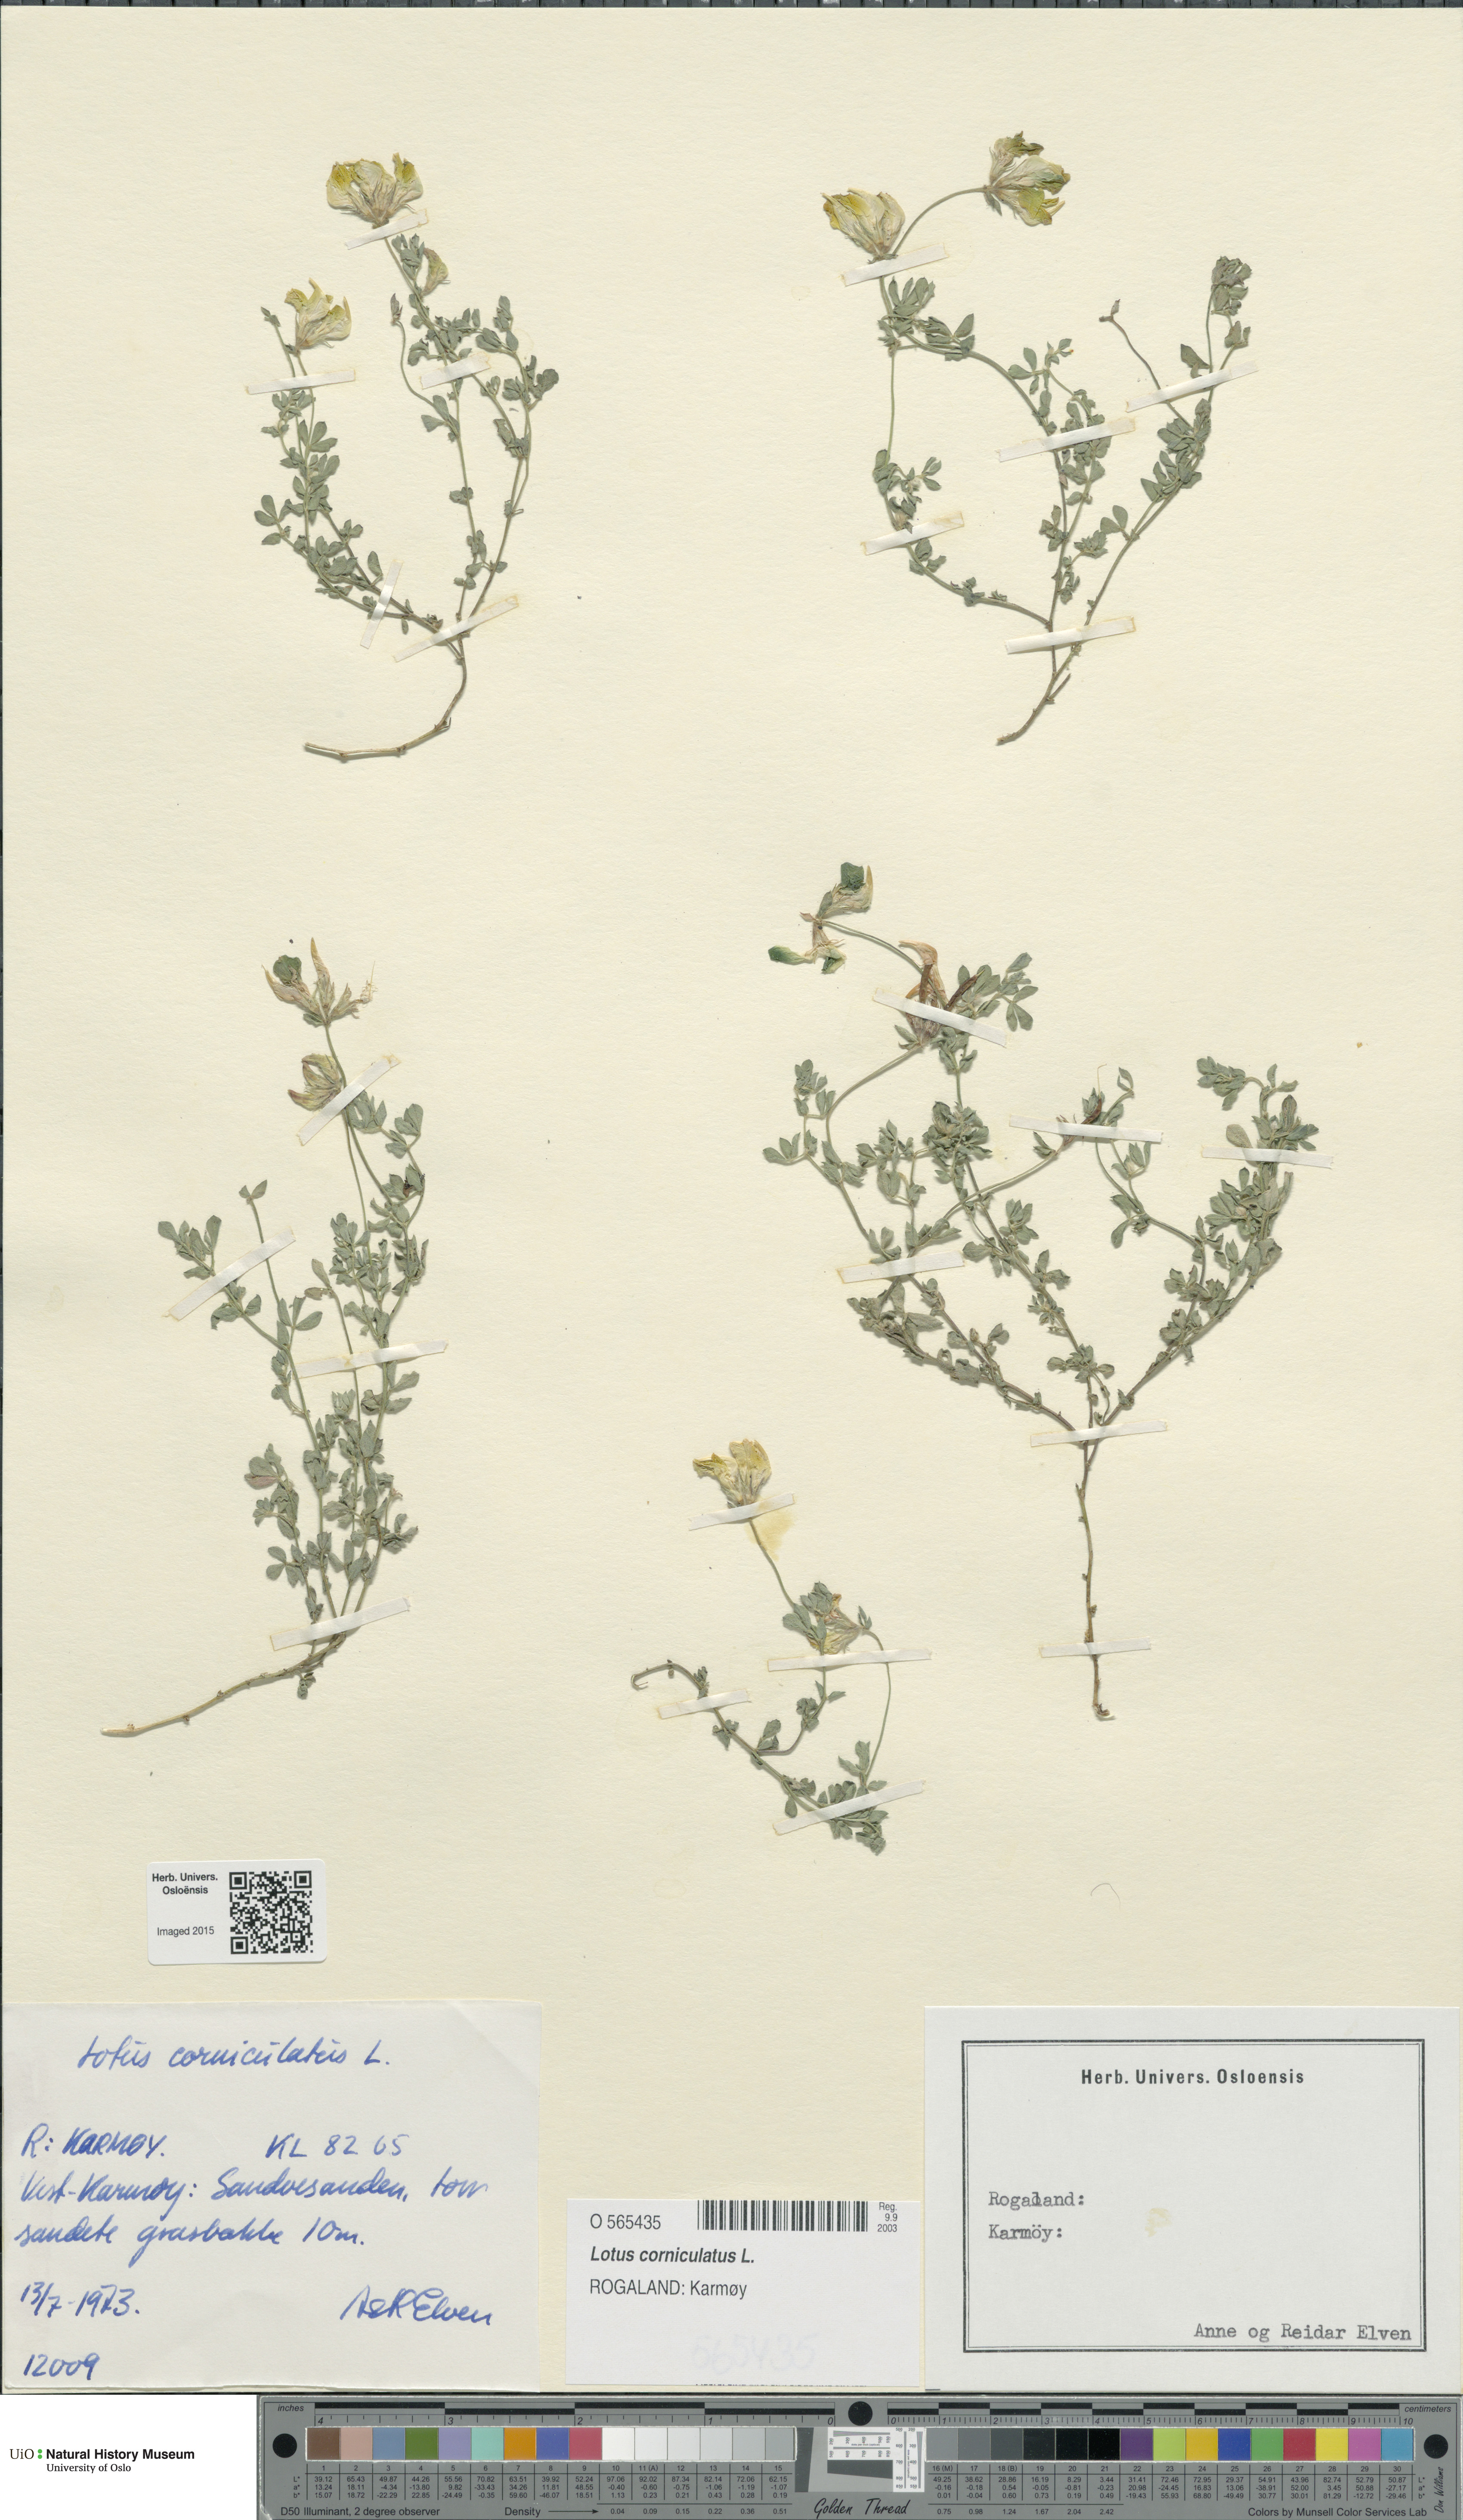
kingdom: Plantae
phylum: Tracheophyta
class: Magnoliopsida
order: Fabales
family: Fabaceae
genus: Lotus
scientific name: Lotus corniculatus
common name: Common bird's-foot-trefoil
